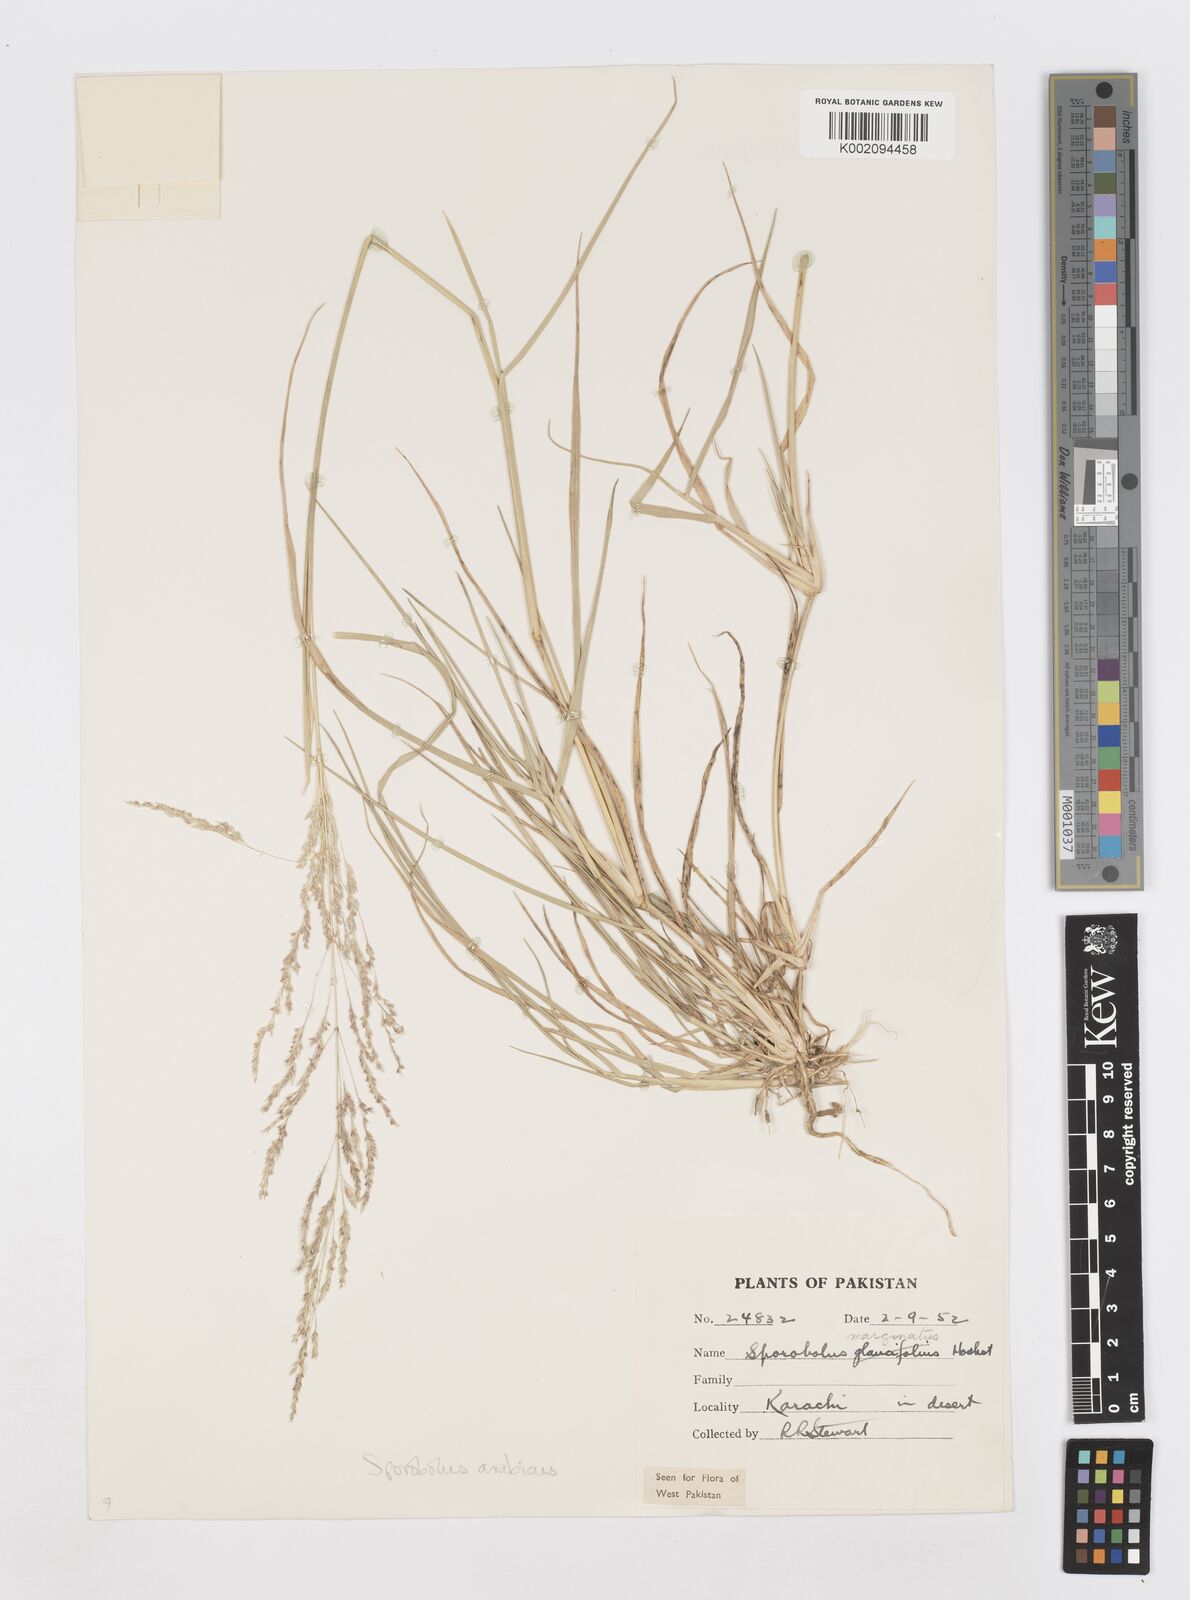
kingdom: Plantae
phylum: Tracheophyta
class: Liliopsida
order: Poales
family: Poaceae
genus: Sporobolus
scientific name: Sporobolus ioclados
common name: Pan dropseed
